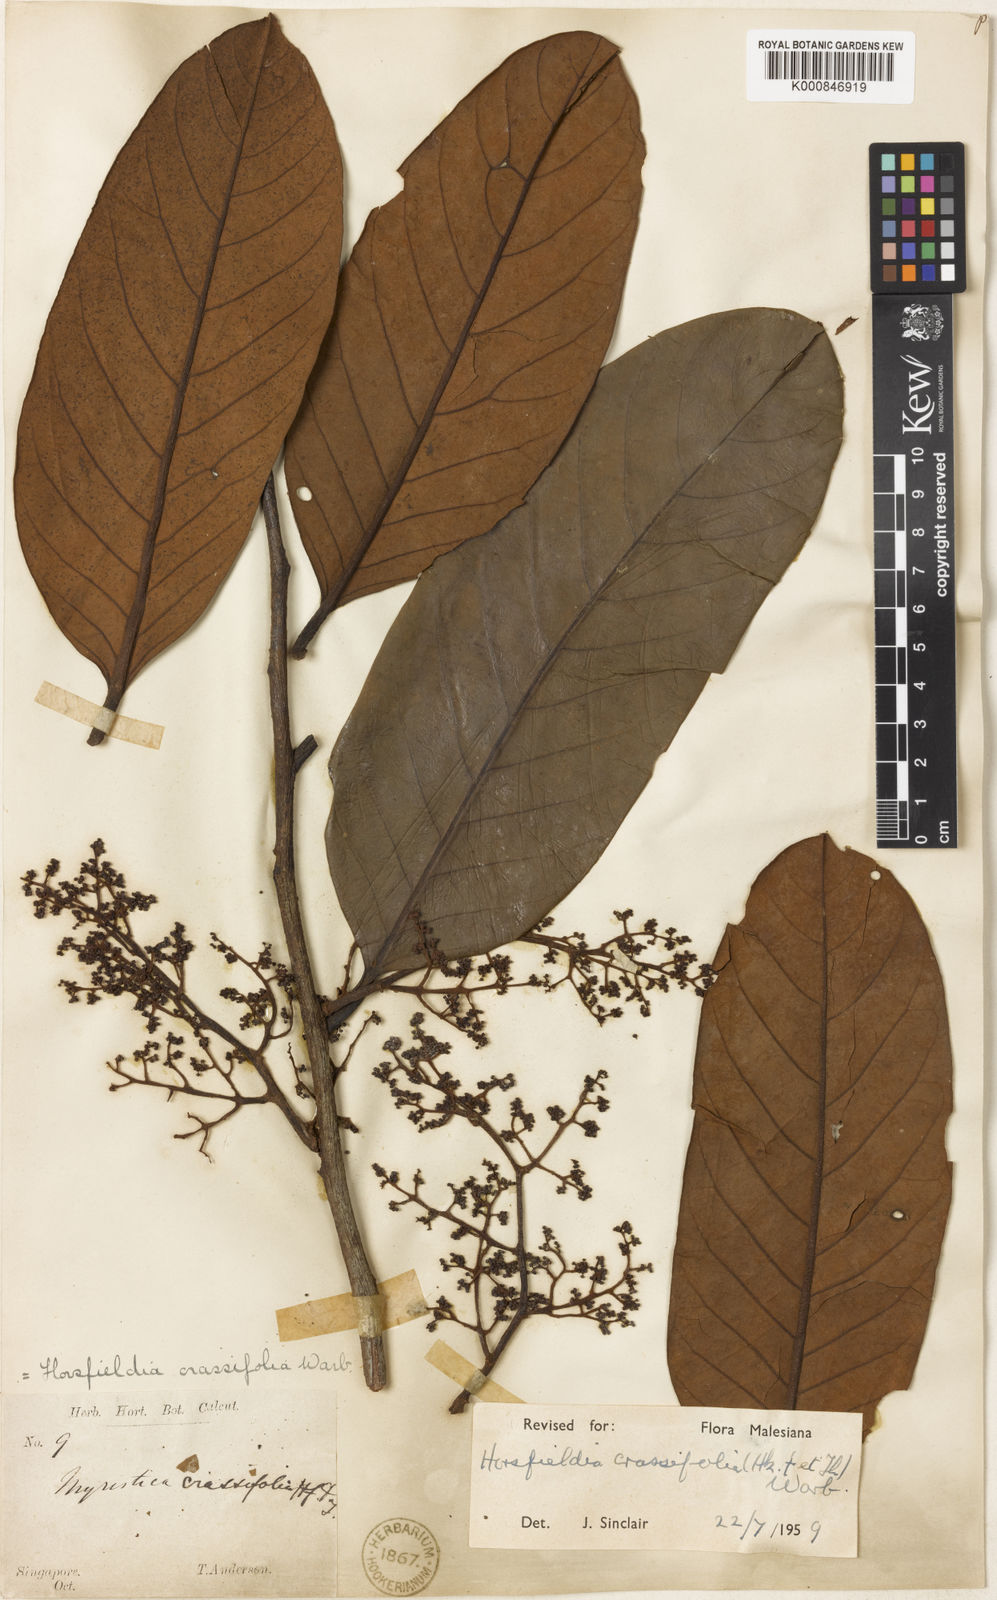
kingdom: Plantae
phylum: Tracheophyta
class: Magnoliopsida
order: Magnoliales
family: Myristicaceae
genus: Horsfieldia
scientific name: Horsfieldia crassifolia
